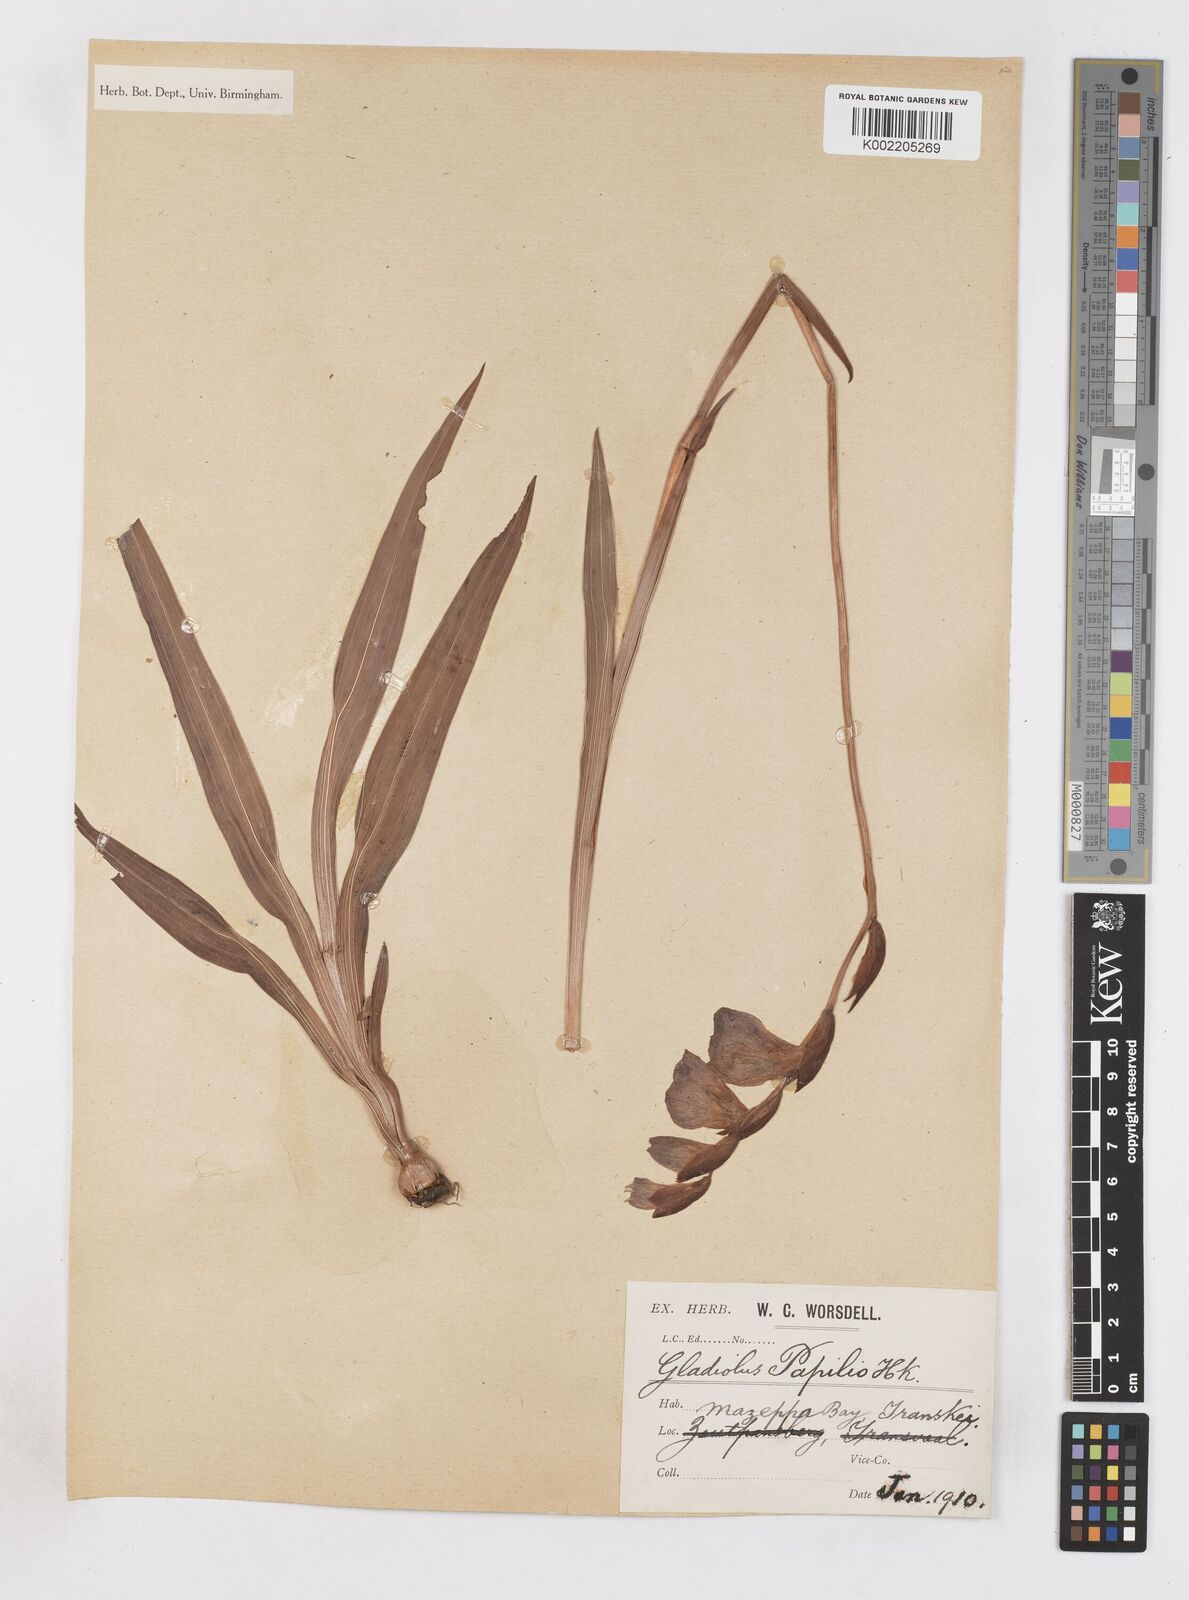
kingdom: Plantae
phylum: Tracheophyta
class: Liliopsida
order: Asparagales
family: Iridaceae
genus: Gladiolus
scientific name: Gladiolus papilio
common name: Goldblotch gladiolus
